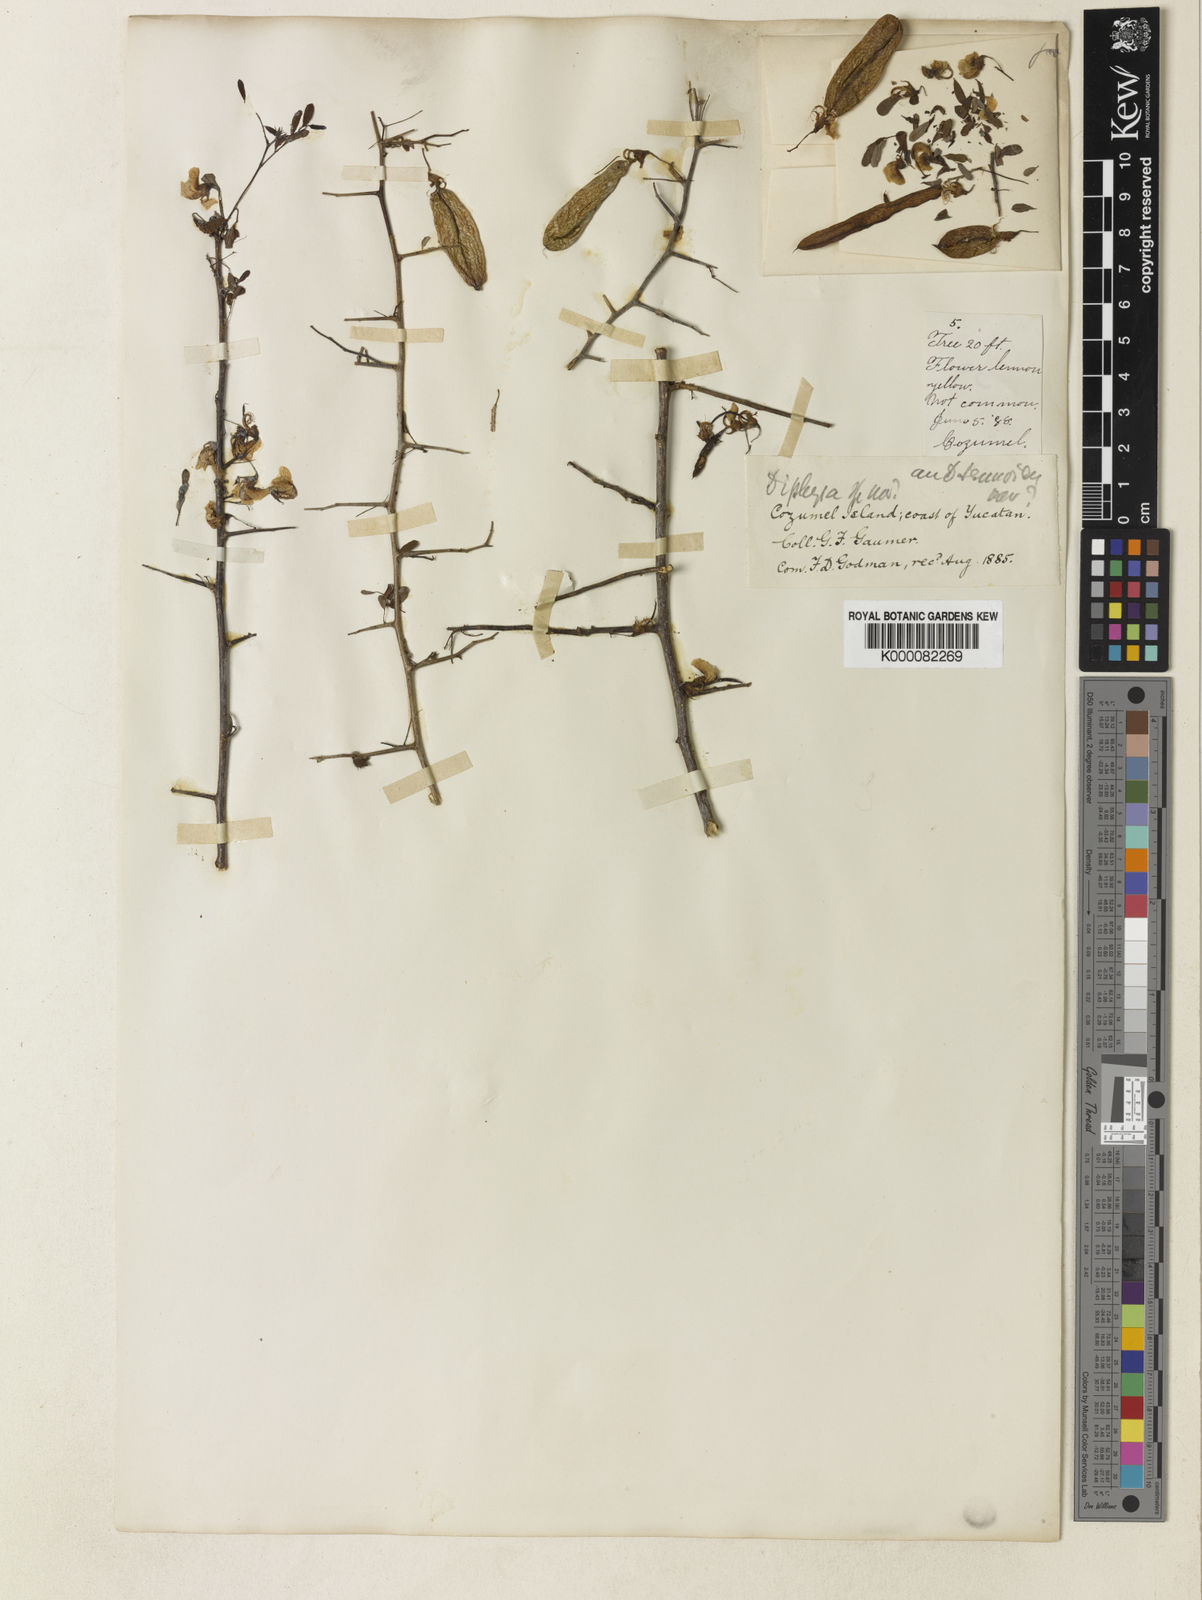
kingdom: Plantae
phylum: Tracheophyta
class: Magnoliopsida
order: Fabales
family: Fabaceae
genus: Diphysa
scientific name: Diphysa
